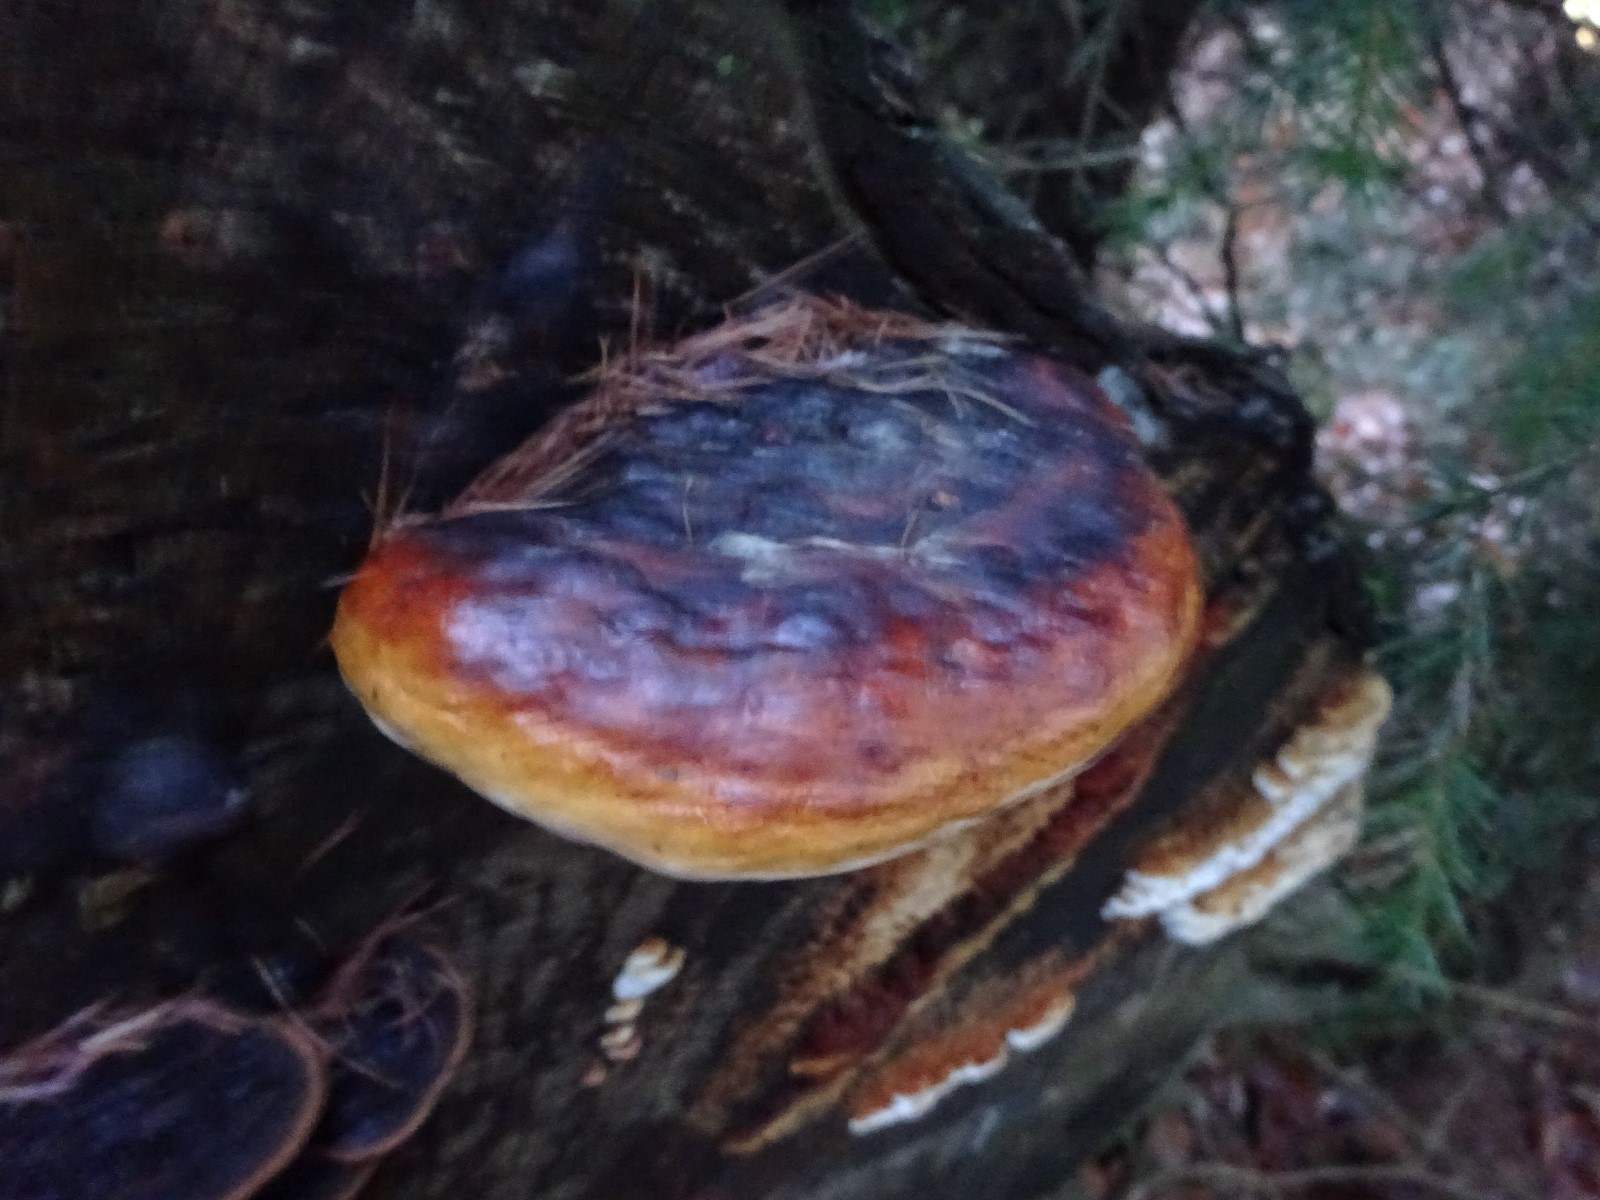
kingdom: Fungi
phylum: Basidiomycota
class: Agaricomycetes
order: Polyporales
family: Fomitopsidaceae
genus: Fomitopsis
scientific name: Fomitopsis pinicola
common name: randbæltet hovporesvamp
